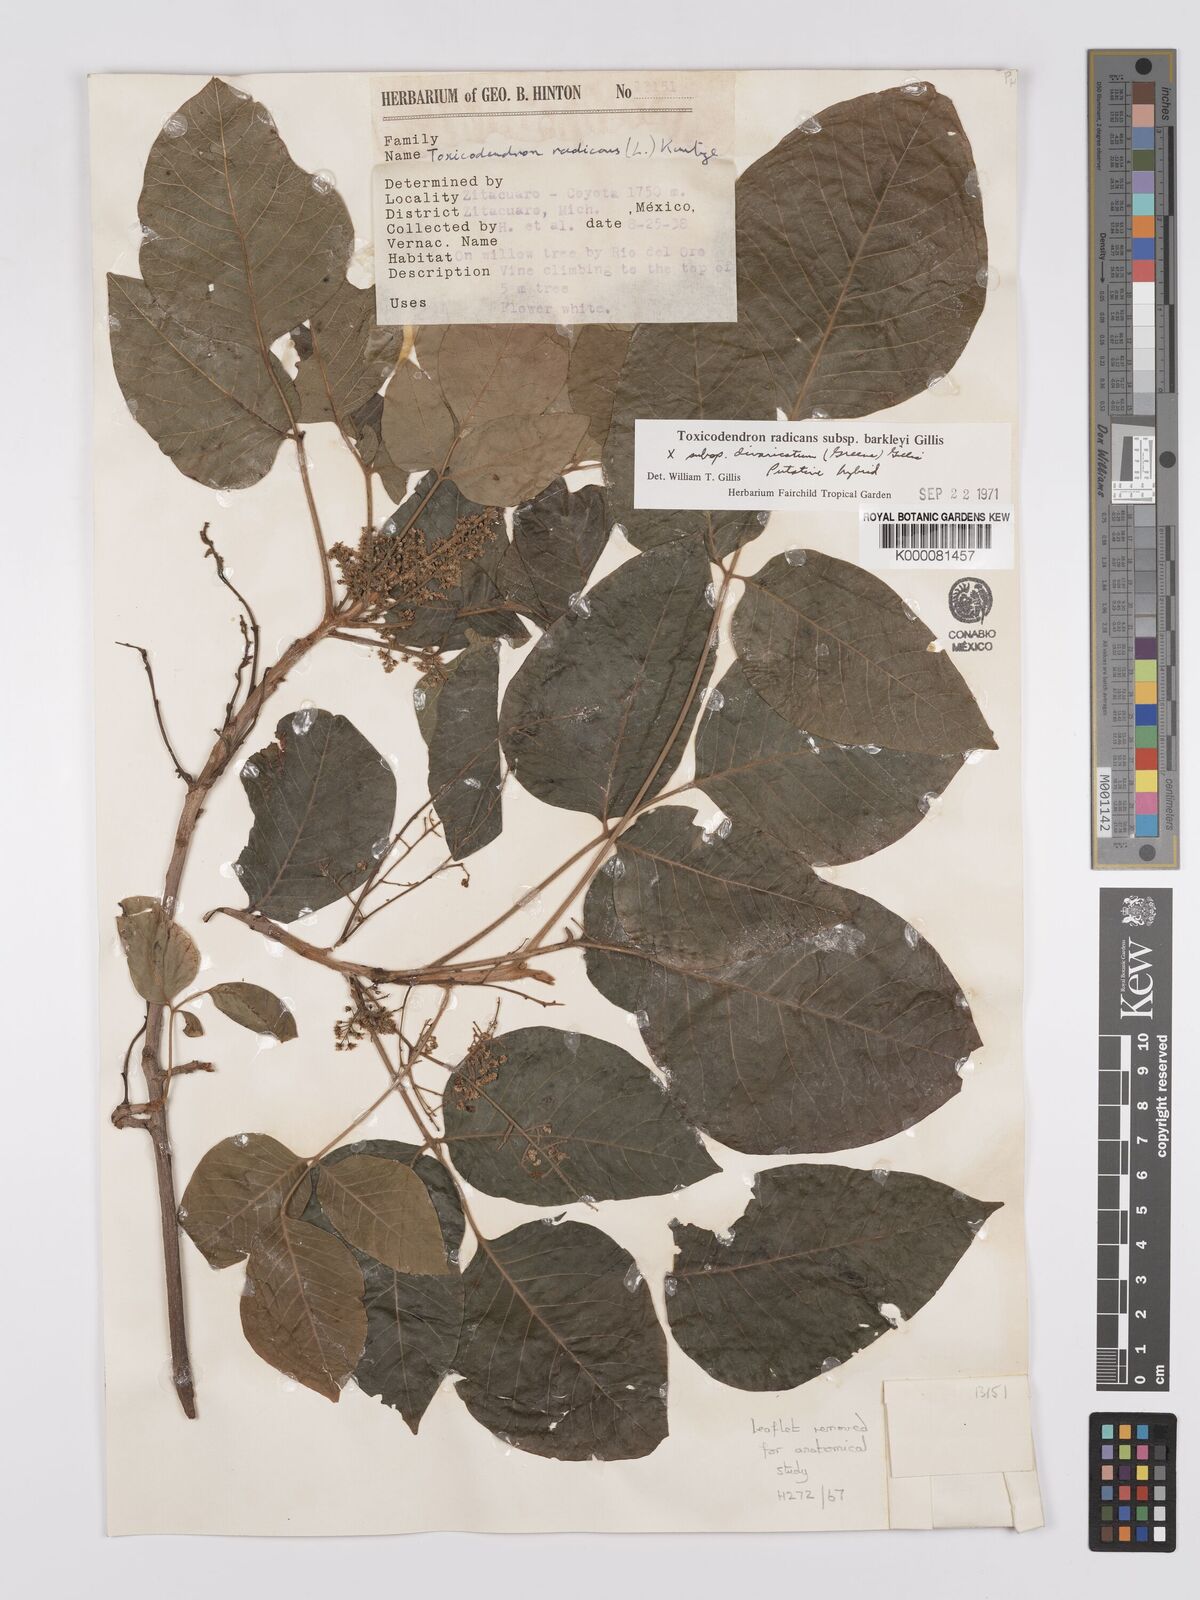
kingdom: Plantae
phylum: Tracheophyta
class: Magnoliopsida
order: Sapindales
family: Anacardiaceae
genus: Toxicodendron
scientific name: Toxicodendron radicans
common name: Poison ivy
